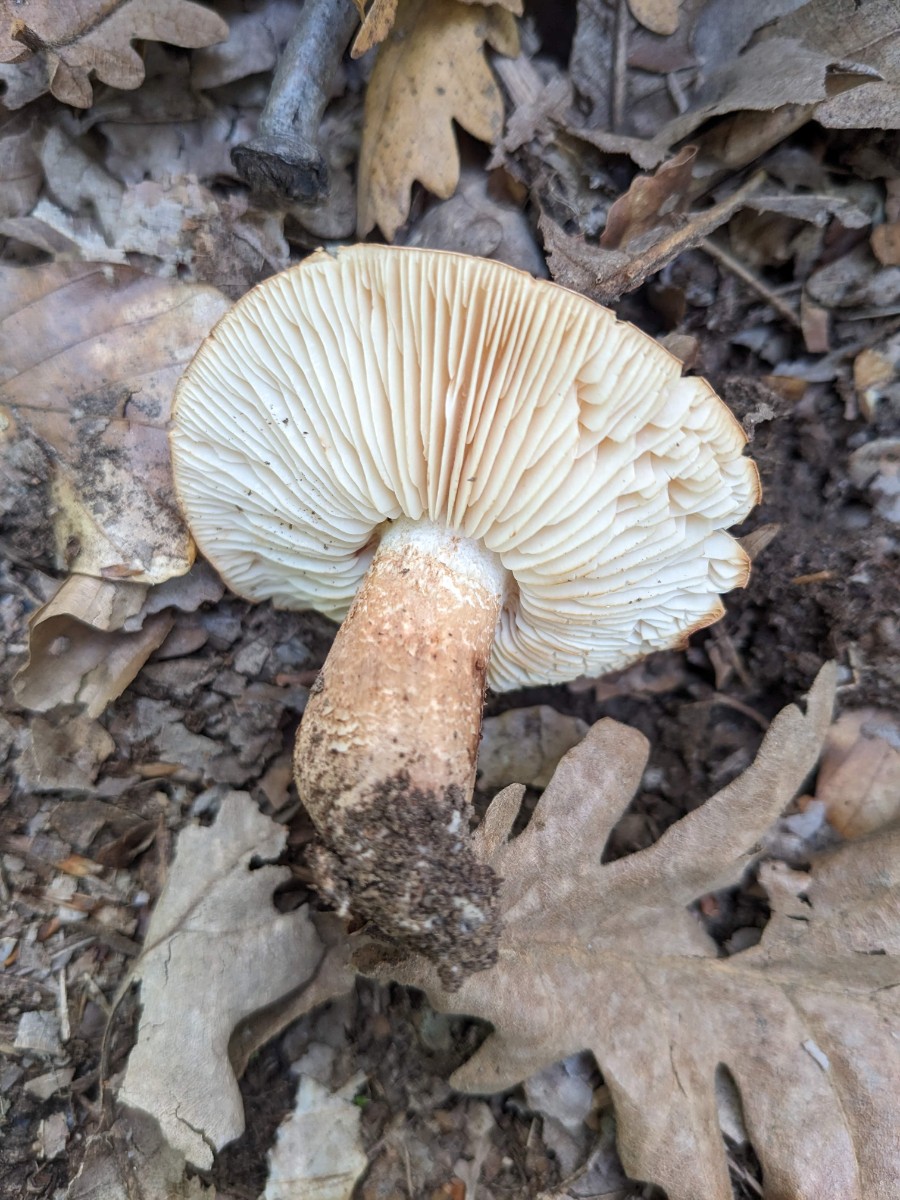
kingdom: Fungi
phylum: Basidiomycota
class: Agaricomycetes
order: Agaricales
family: Tricholomataceae
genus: Tricholoma
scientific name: Tricholoma
